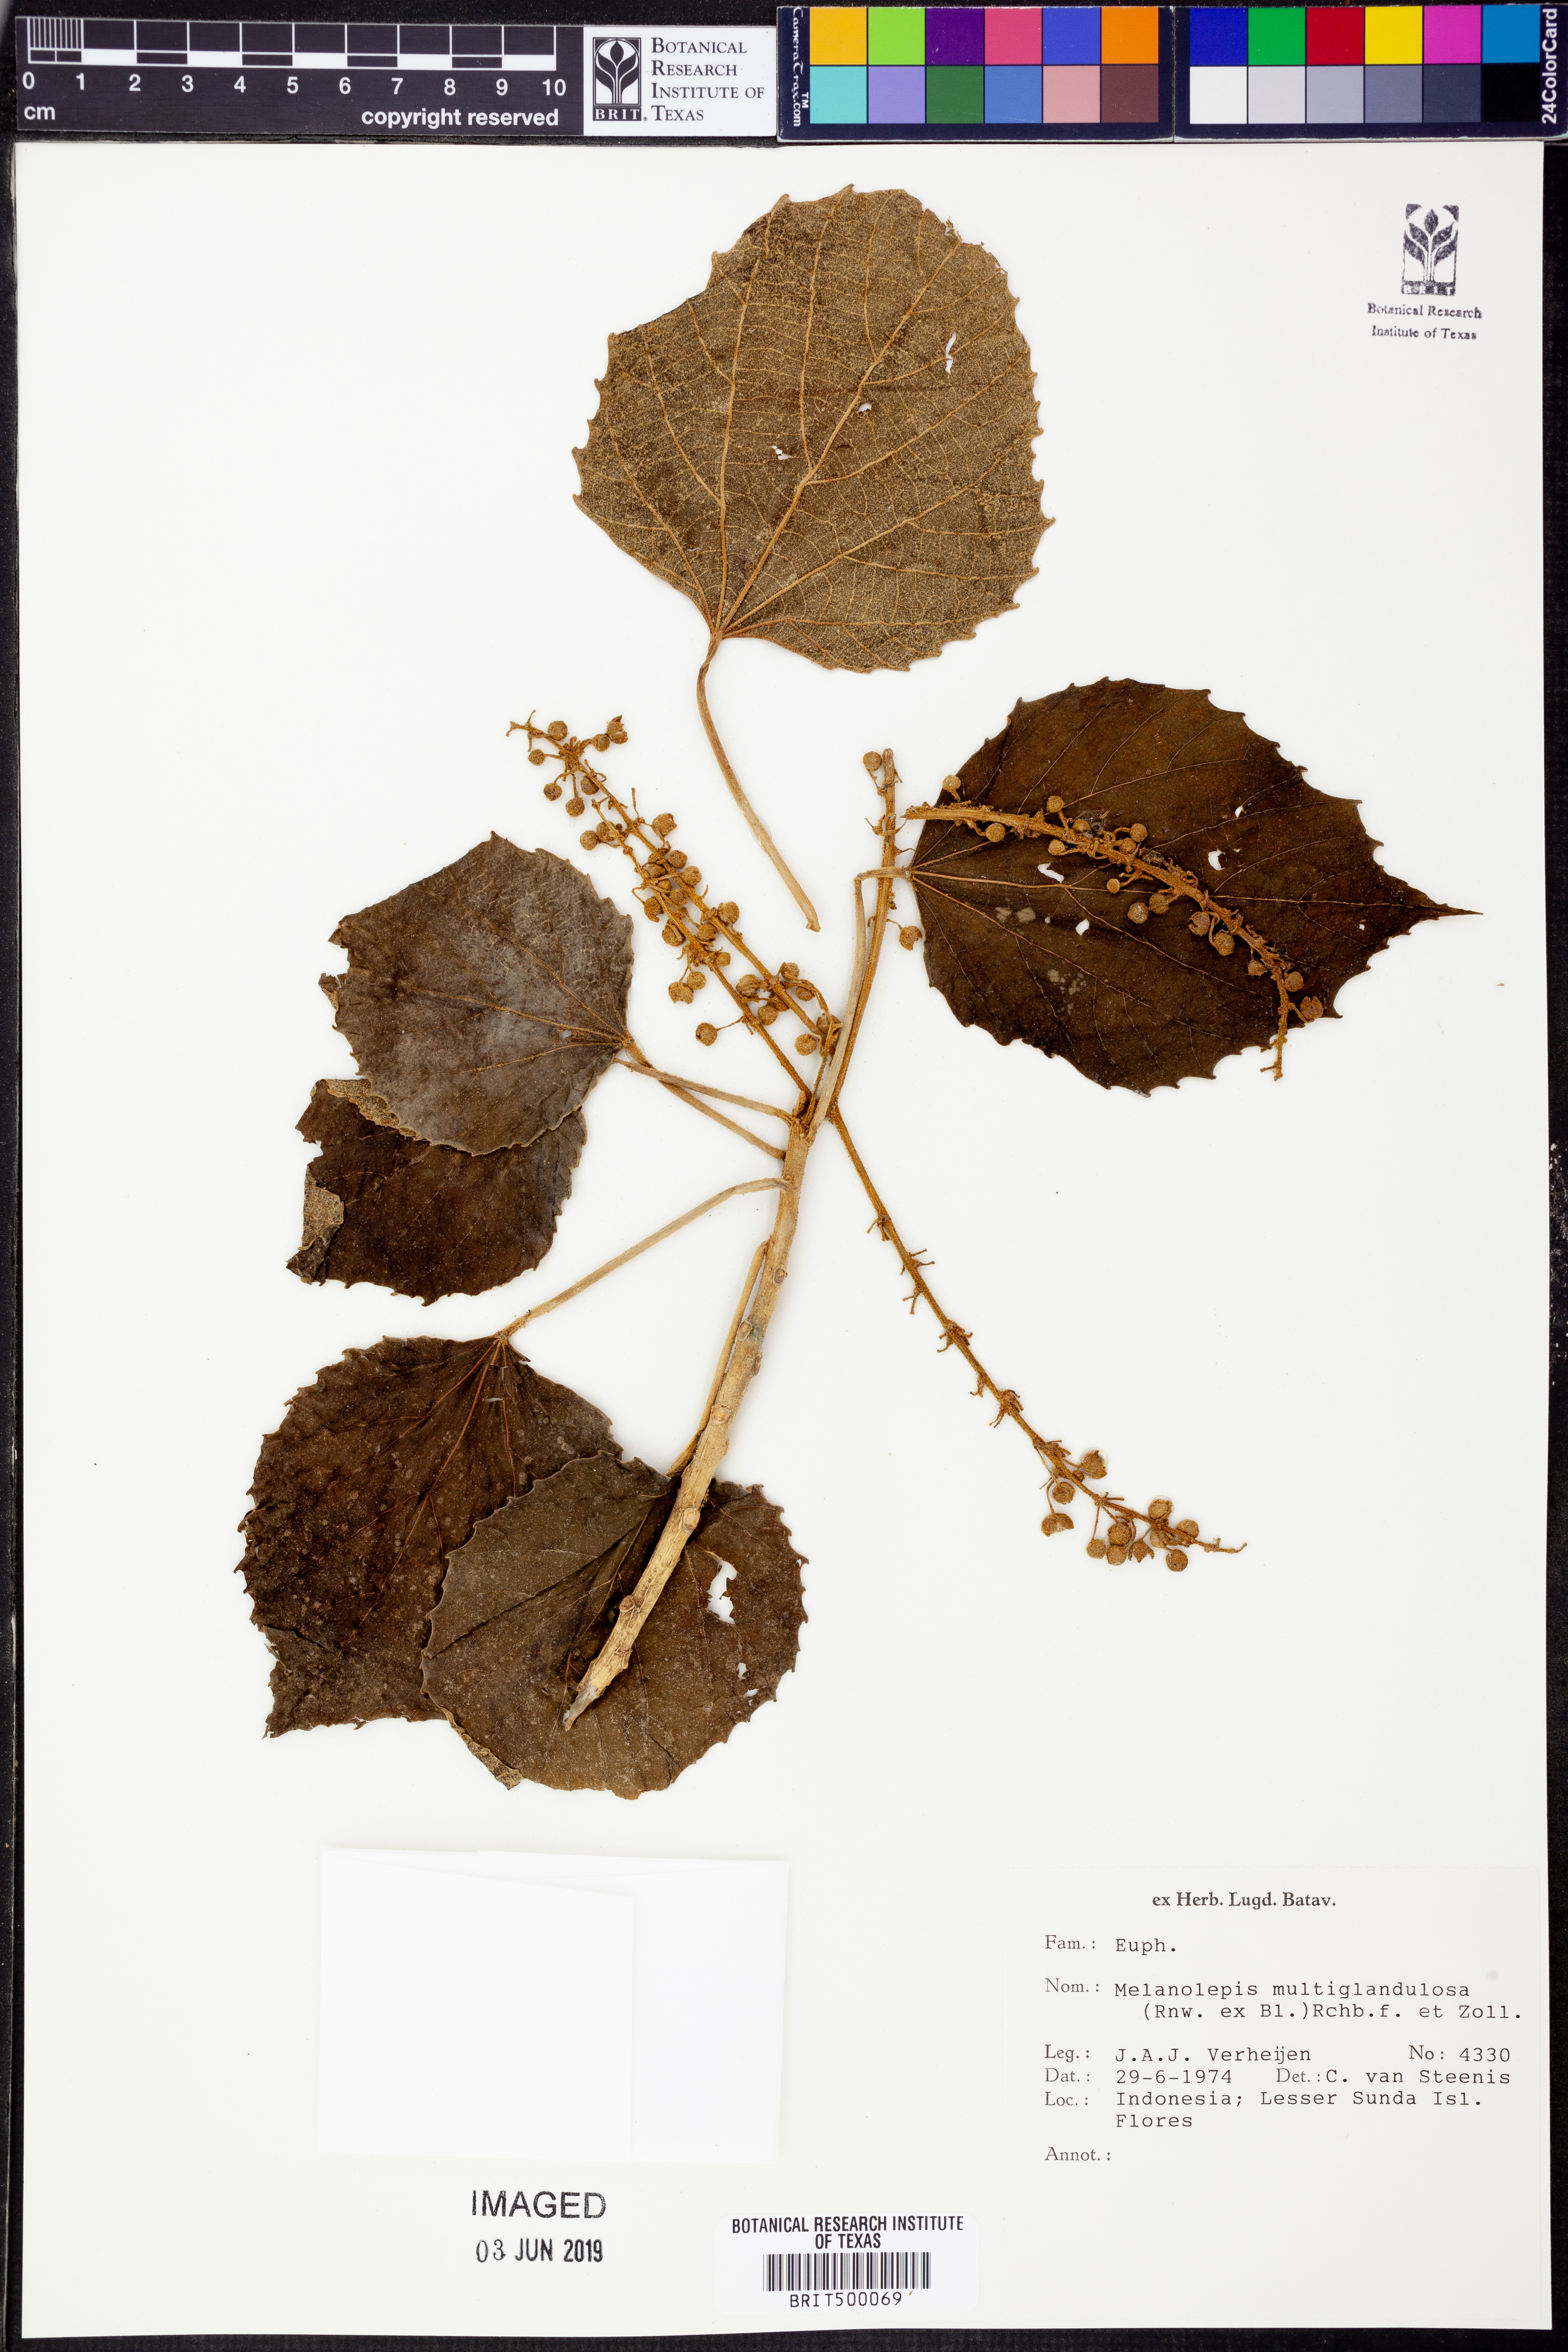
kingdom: Plantae
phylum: Tracheophyta
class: Magnoliopsida
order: Malpighiales
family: Euphorbiaceae
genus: Melanolepis
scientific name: Melanolepis multiglandulosa
